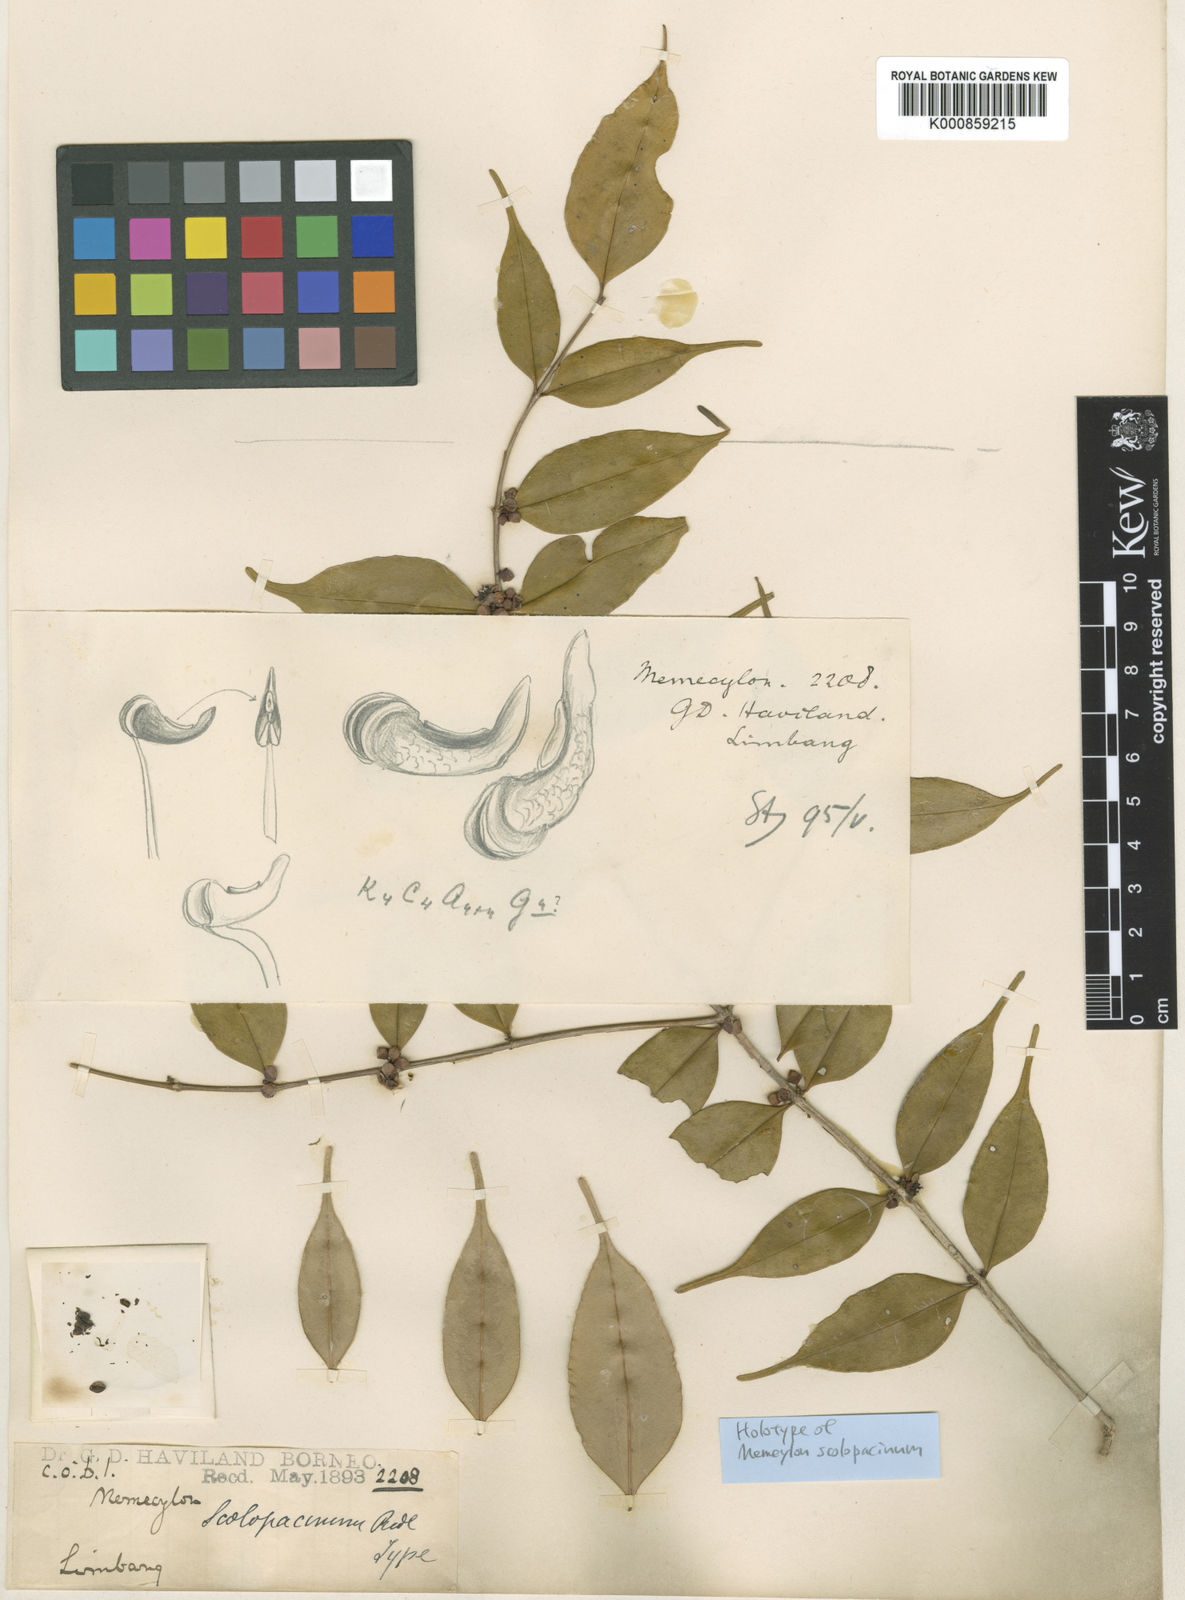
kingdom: Plantae
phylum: Tracheophyta
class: Magnoliopsida
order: Myrtales
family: Melastomataceae
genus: Memecylon
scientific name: Memecylon scolopacinum
